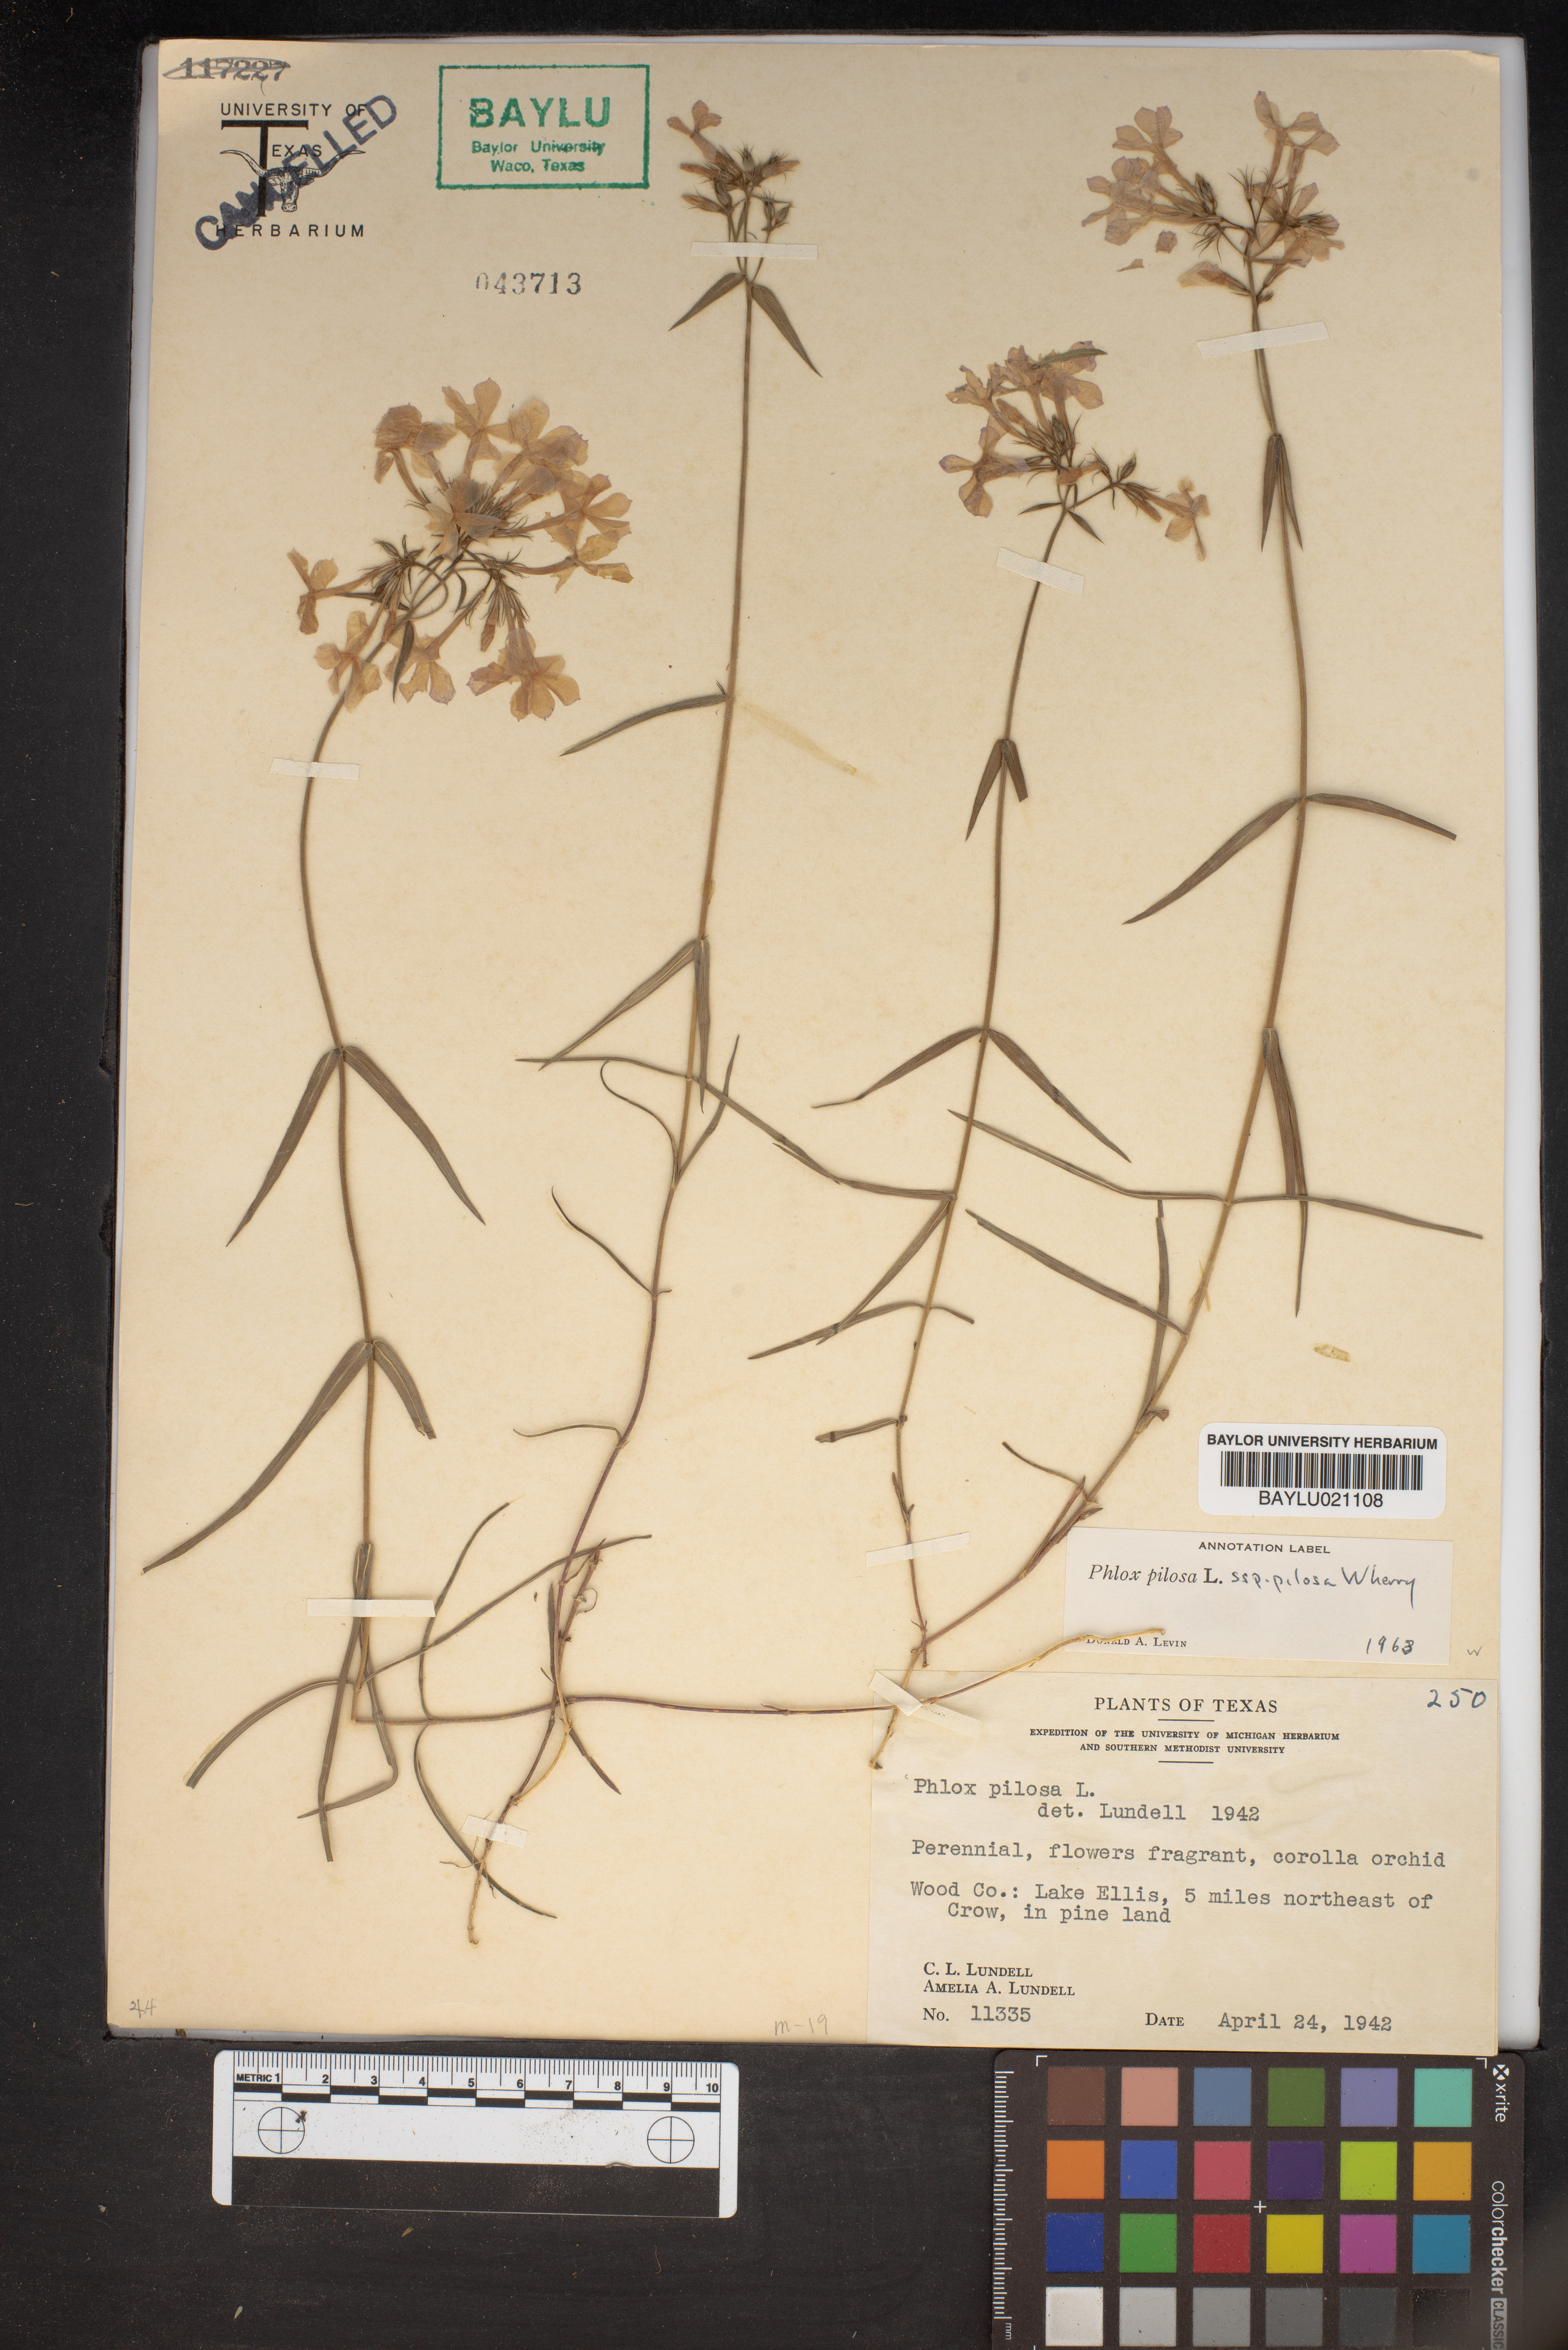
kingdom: Plantae
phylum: Tracheophyta
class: Magnoliopsida
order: Ericales
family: Polemoniaceae
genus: Phlox
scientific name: Phlox pilosa
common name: Prairie phlox
